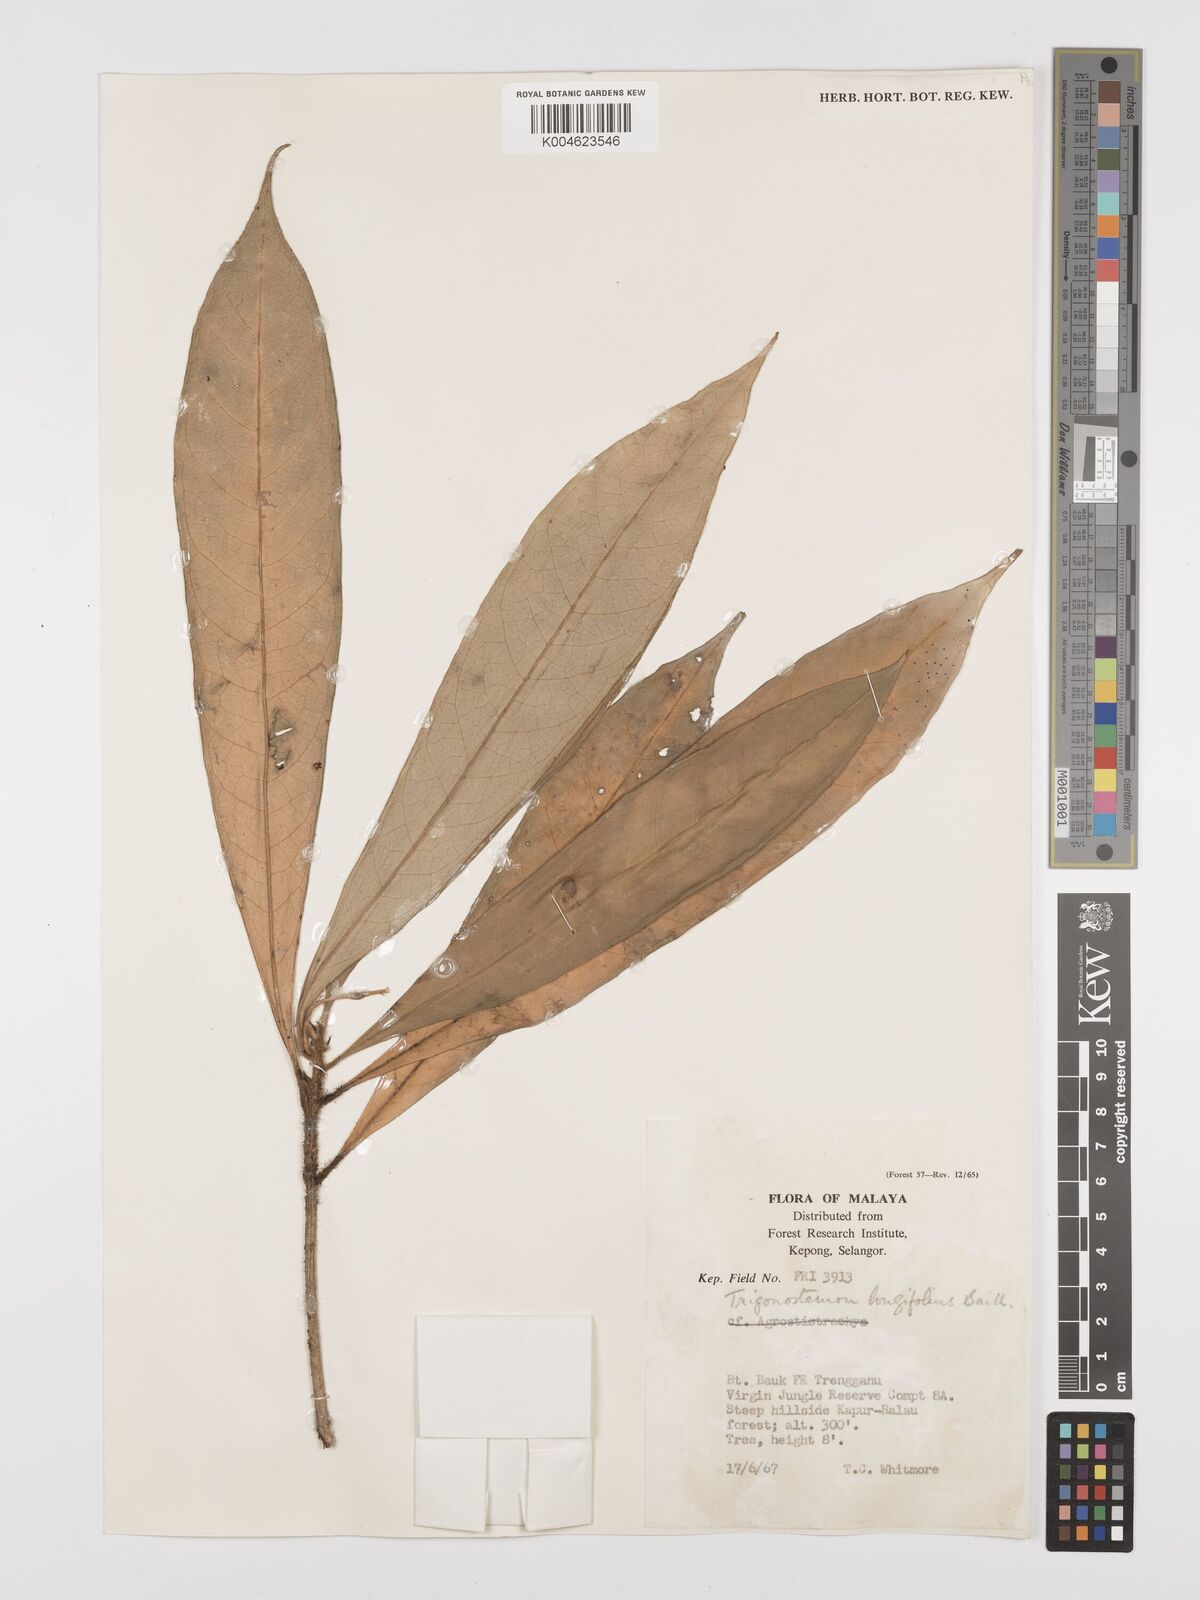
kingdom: Plantae
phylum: Tracheophyta
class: Magnoliopsida
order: Malpighiales
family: Euphorbiaceae
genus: Trigonostemon
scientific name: Trigonostemon longifolius
